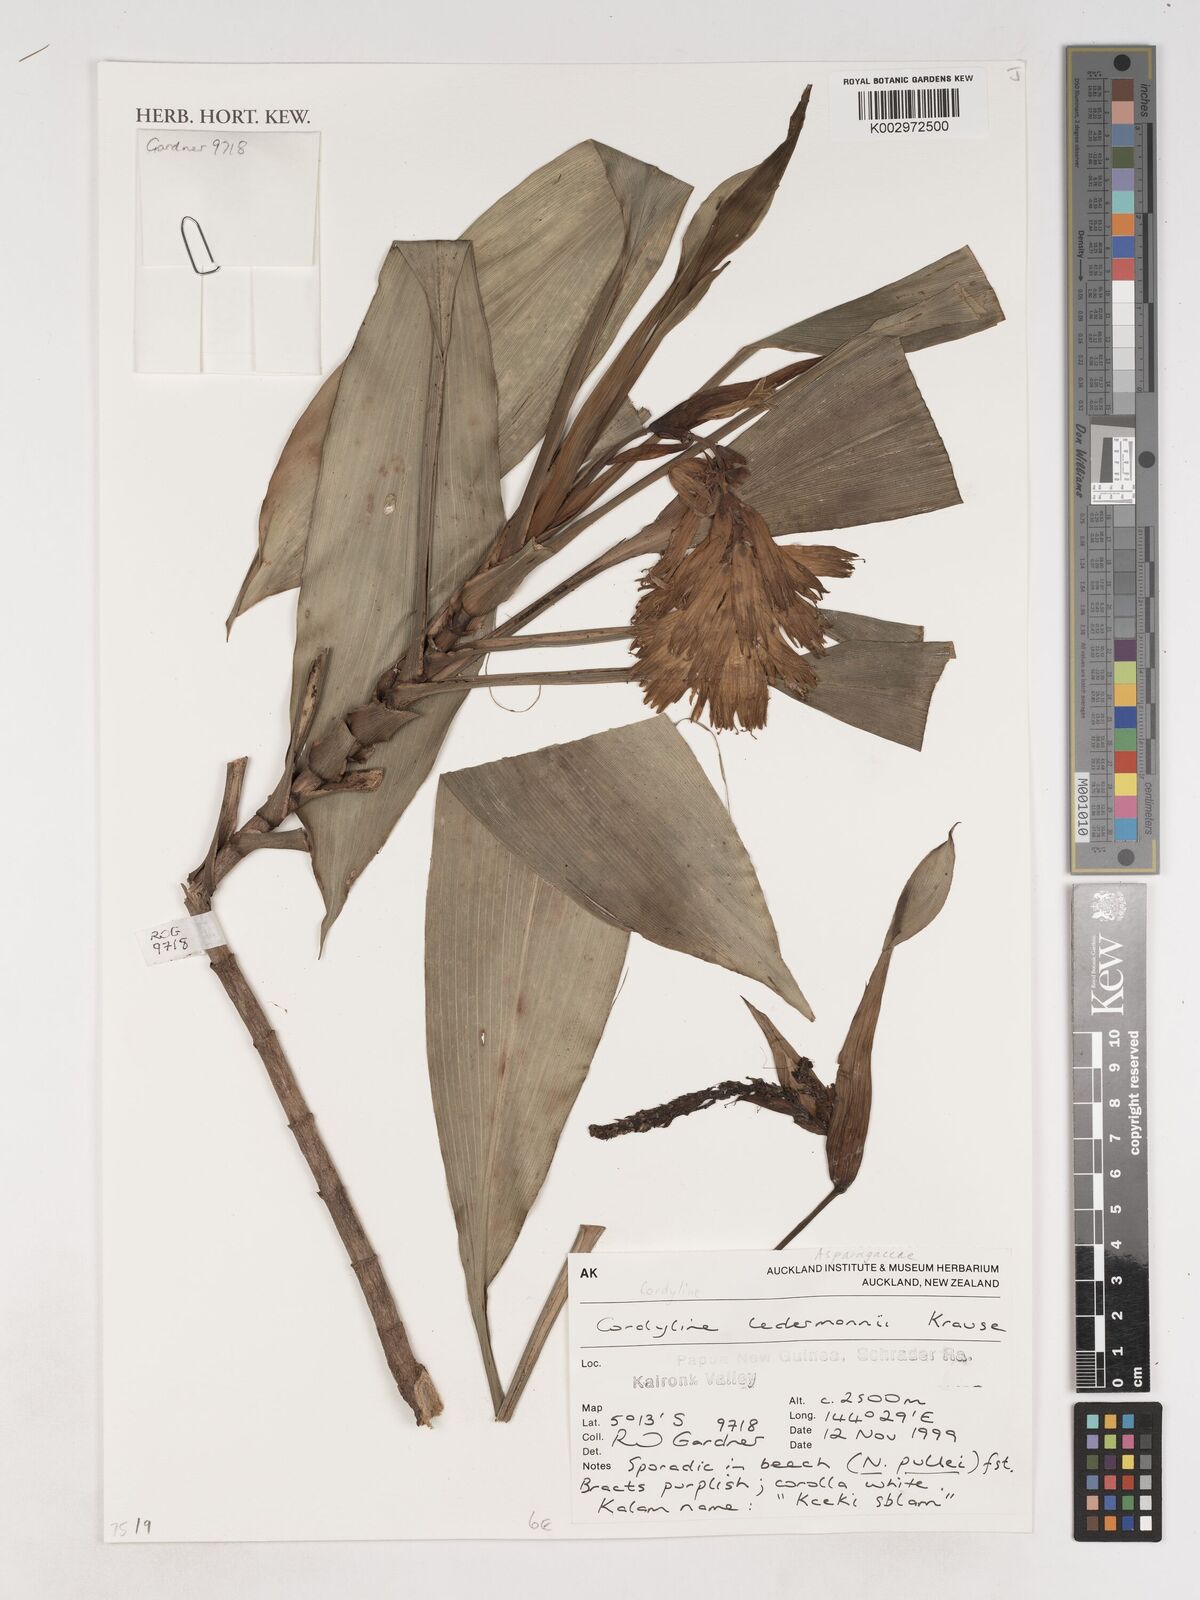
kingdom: Plantae
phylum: Tracheophyta
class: Liliopsida
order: Asparagales
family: Asparagaceae
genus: Cordyline
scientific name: Cordyline ledermannii
